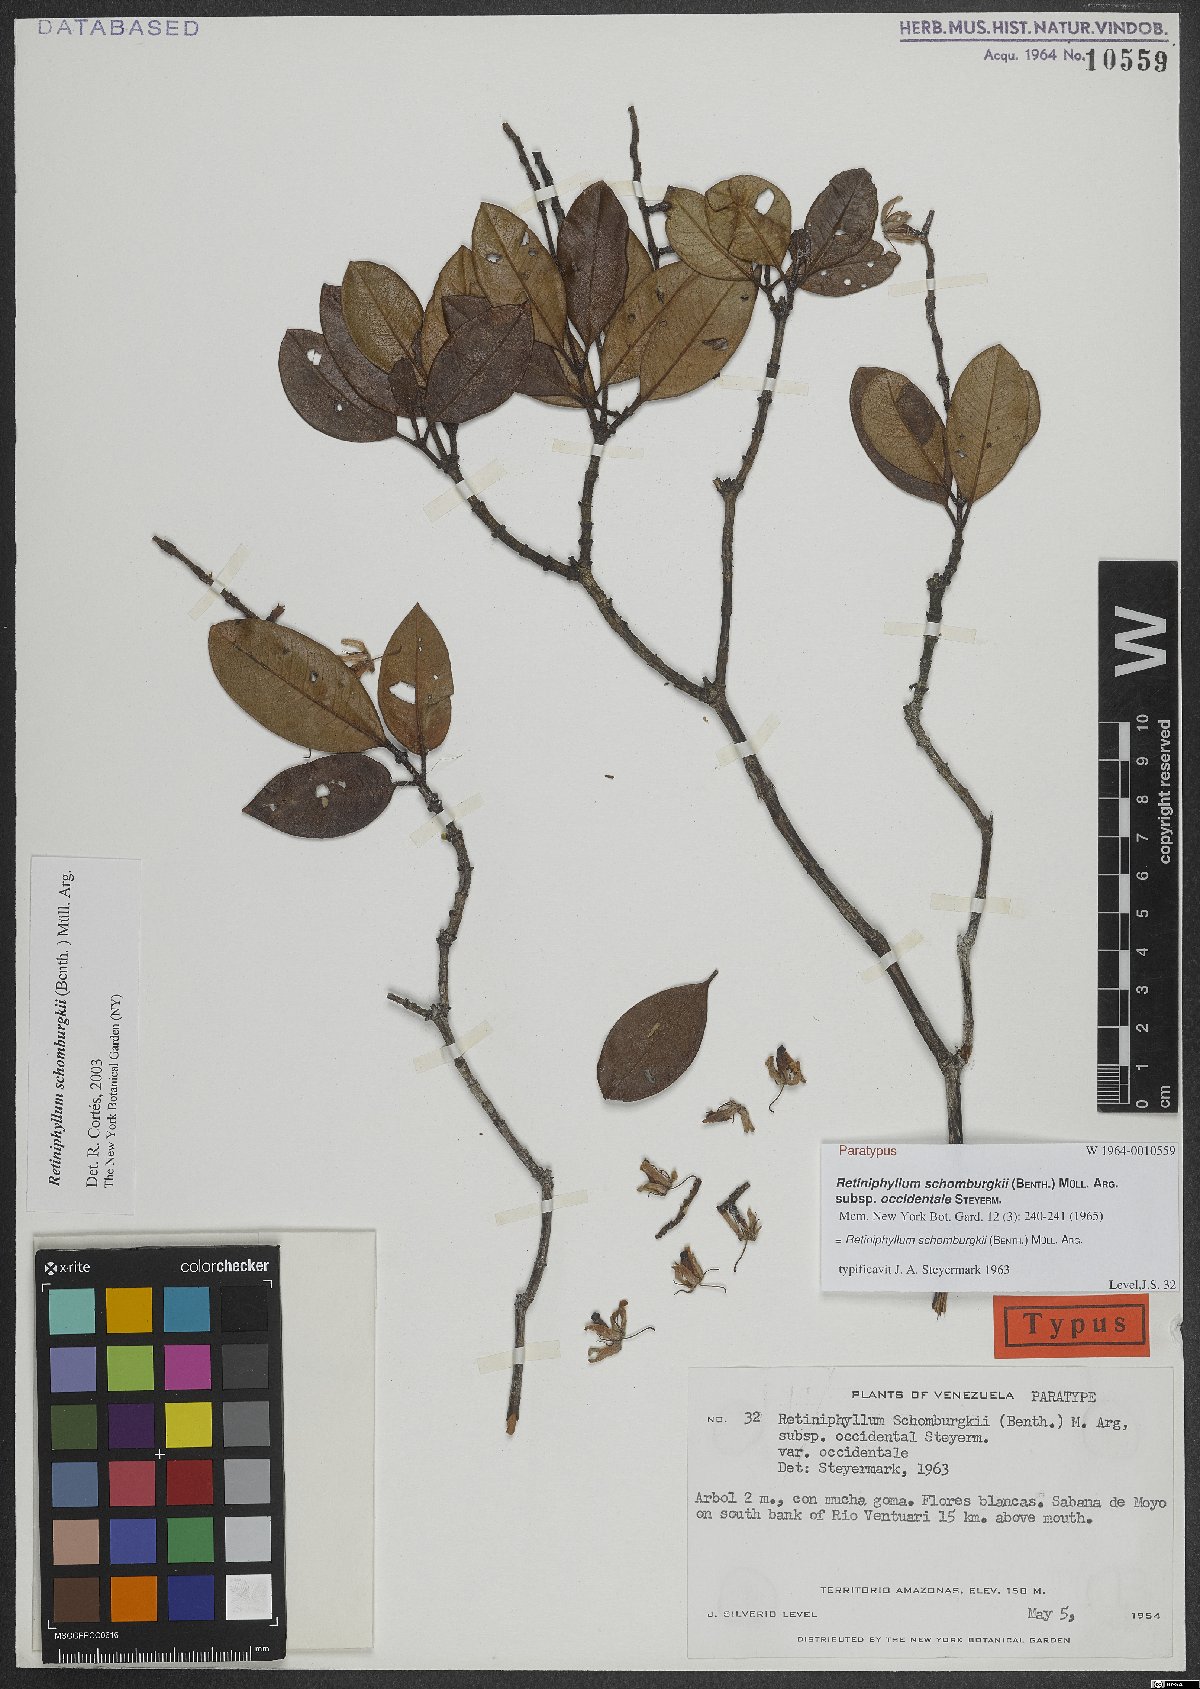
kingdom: Plantae
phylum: Tracheophyta
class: Magnoliopsida
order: Gentianales
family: Rubiaceae
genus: Retiniphyllum
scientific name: Retiniphyllum schomburgkii
